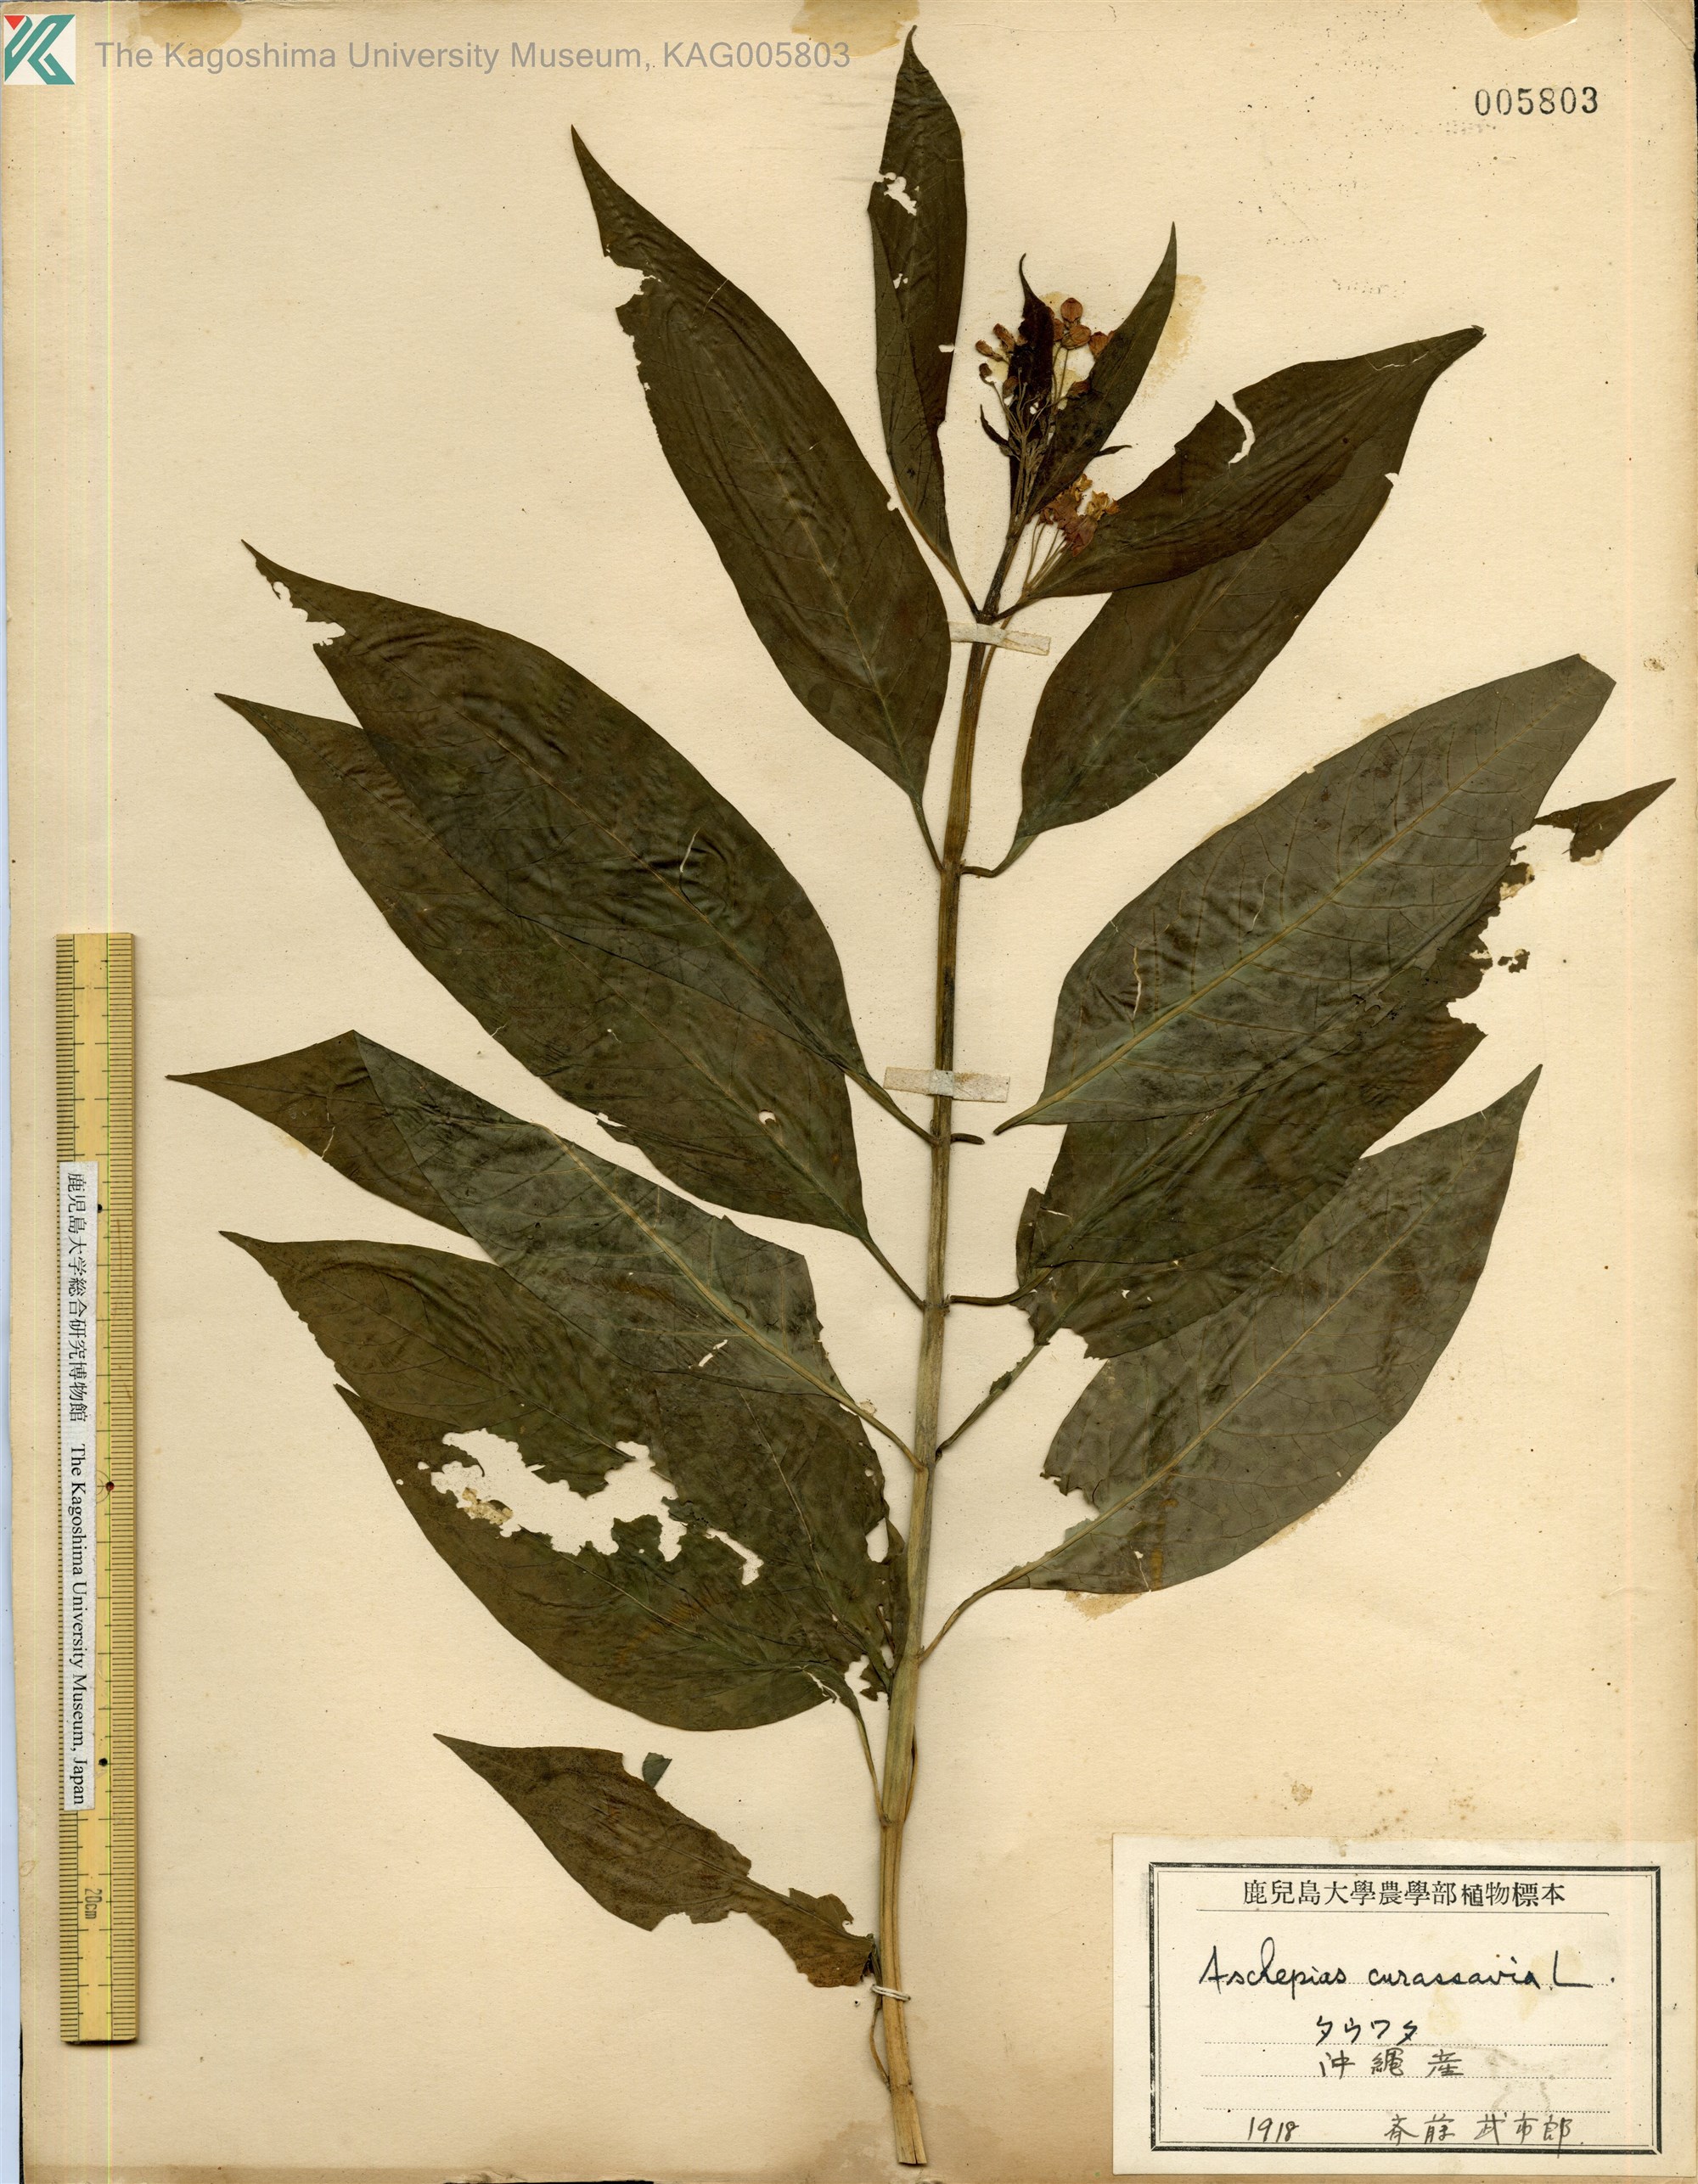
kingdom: Plantae
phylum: Tracheophyta
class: Magnoliopsida
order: Gentianales
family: Apocynaceae
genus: Asclepias
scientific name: Asclepias
